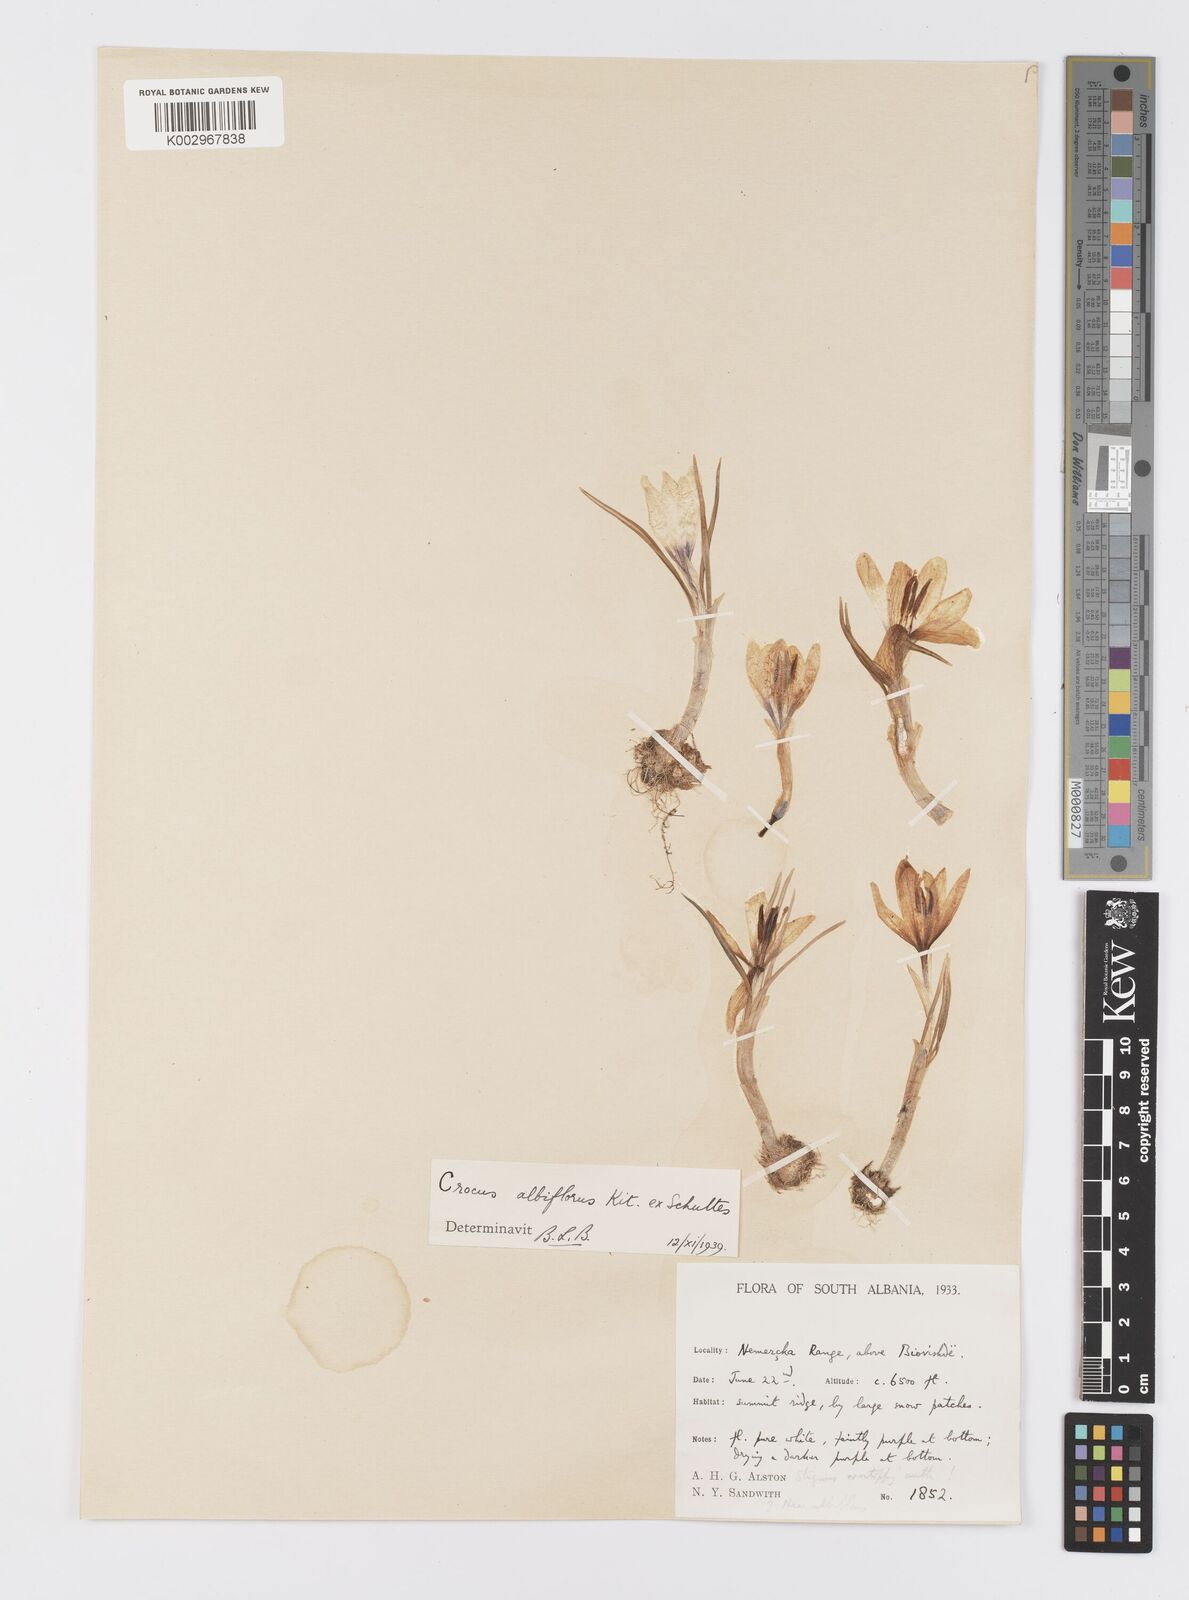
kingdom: Plantae
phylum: Tracheophyta
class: Liliopsida
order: Asparagales
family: Iridaceae
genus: Crocus
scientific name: Crocus cvijicii
